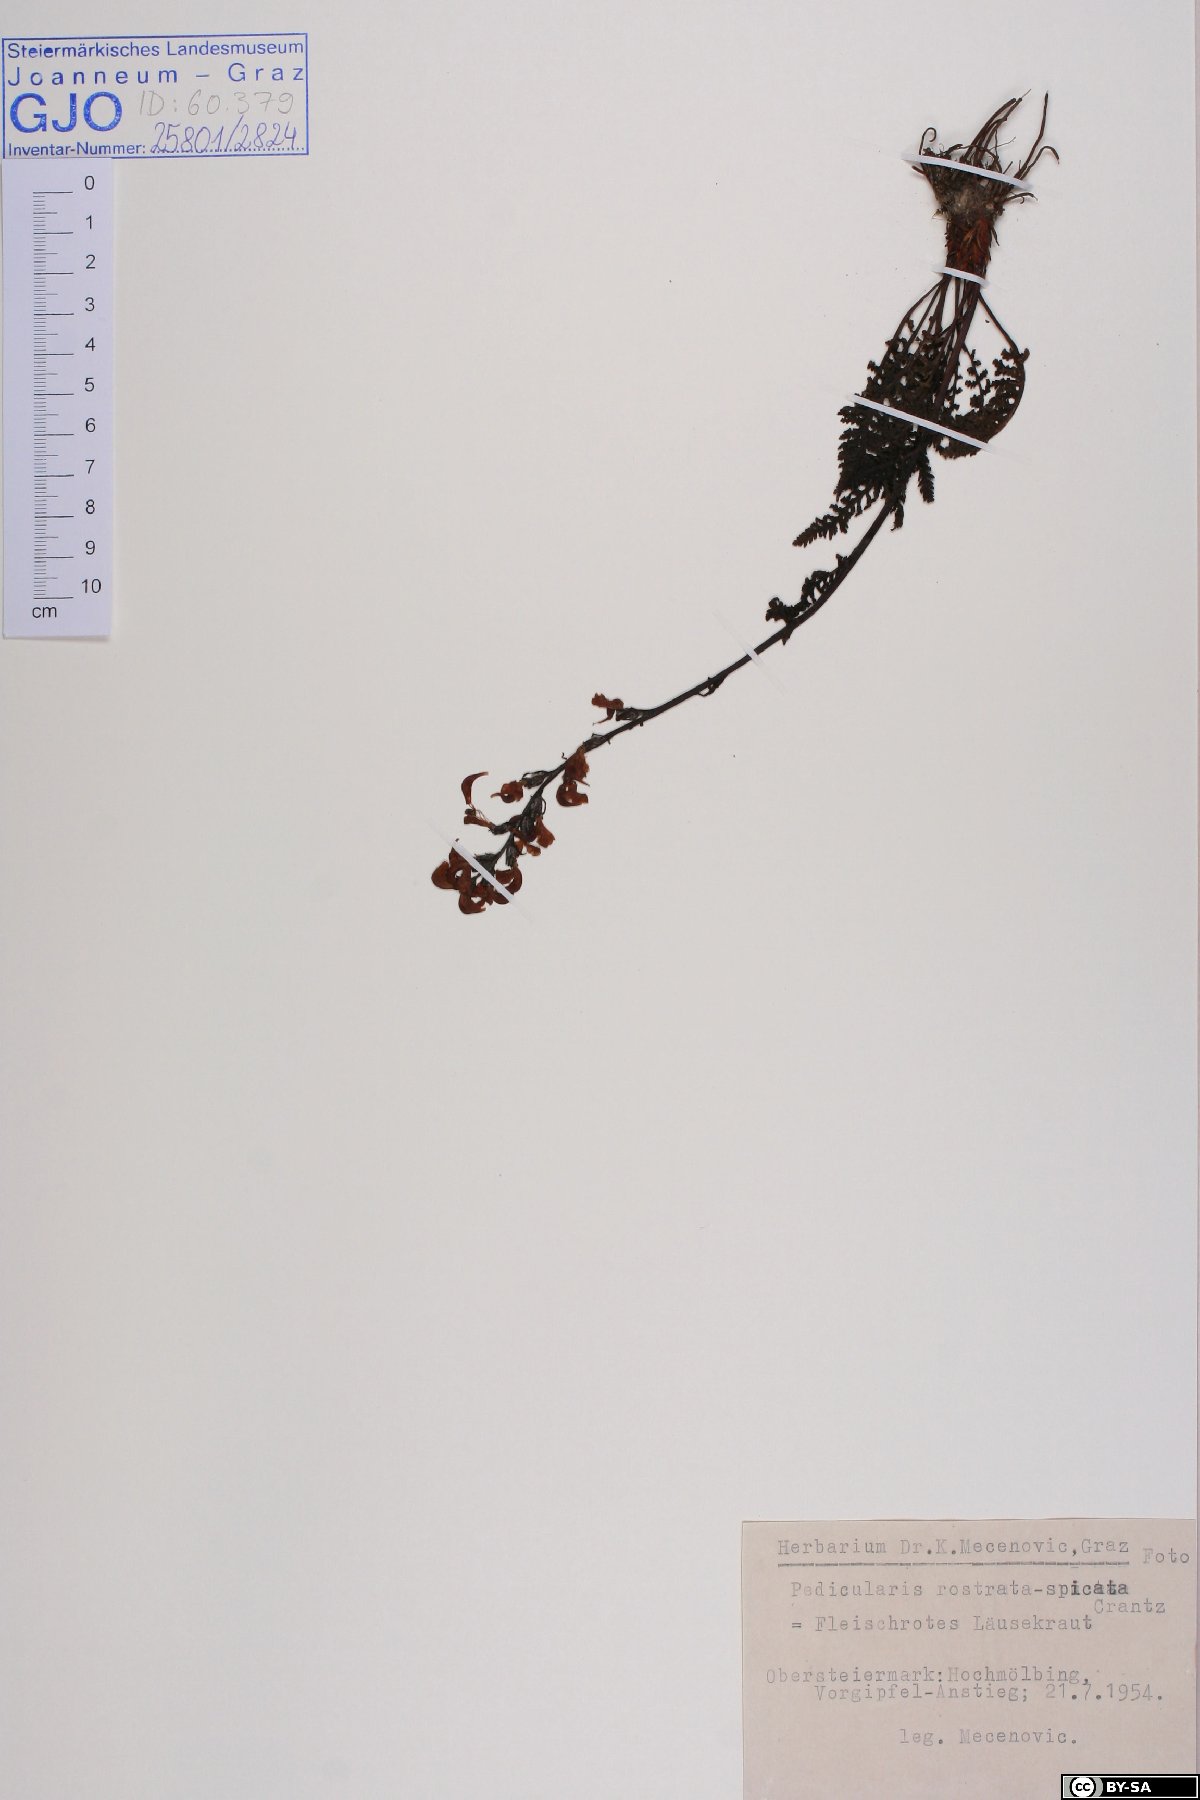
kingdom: Plantae
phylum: Tracheophyta
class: Magnoliopsida
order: Lamiales
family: Orobanchaceae
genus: Pedicularis
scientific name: Pedicularis rostratospicata
